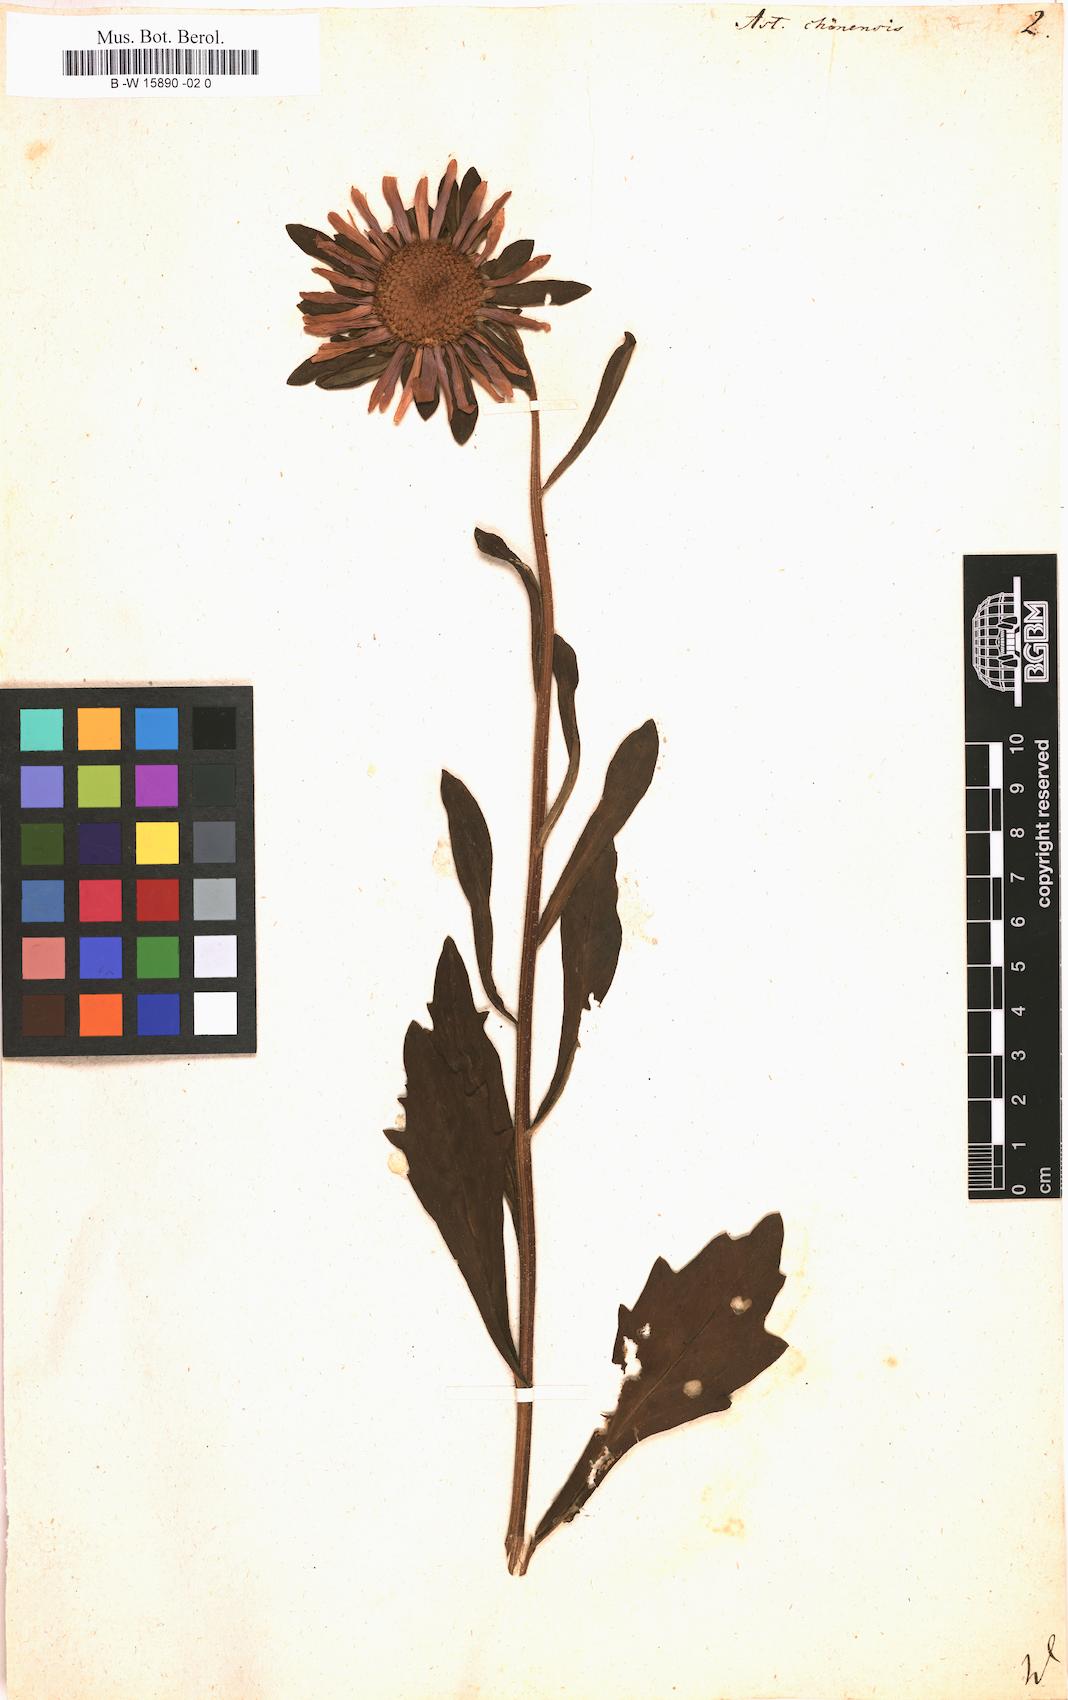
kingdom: Plantae
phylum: Tracheophyta
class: Magnoliopsida
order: Asterales
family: Asteraceae
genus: Callistephus
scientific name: Callistephus chinensis
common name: China aster
